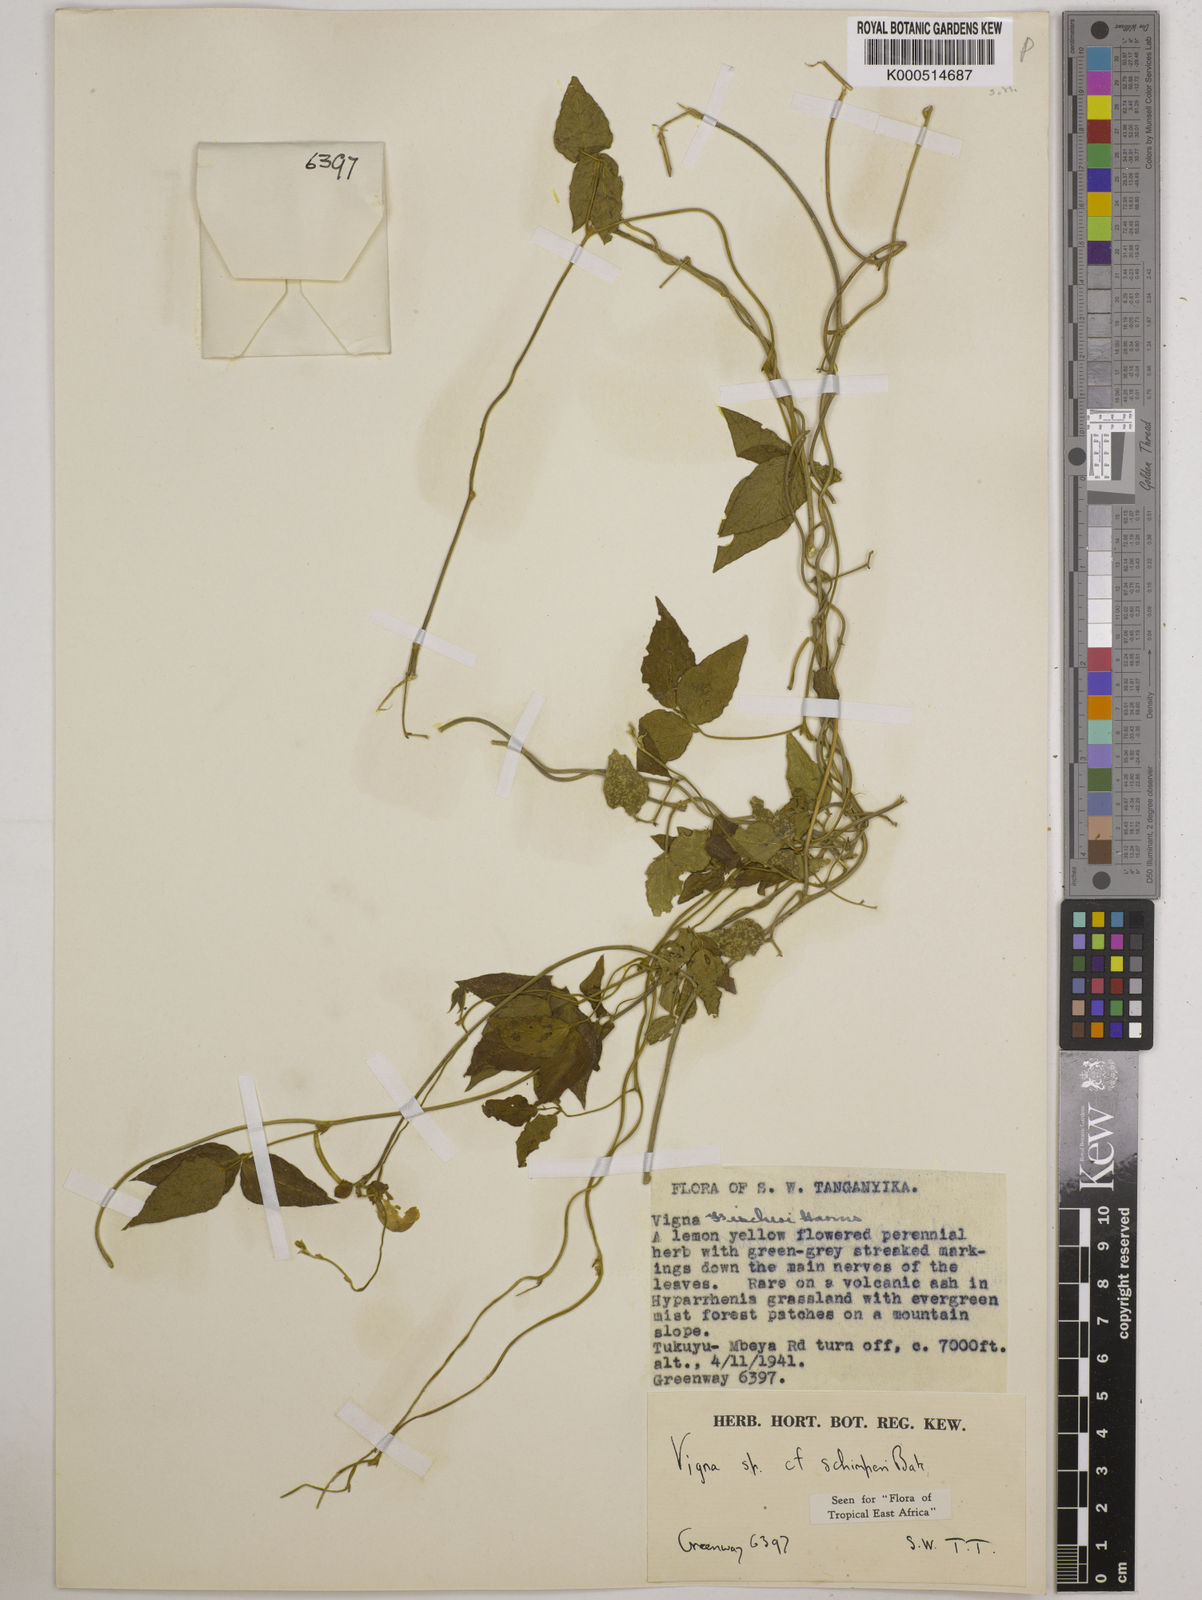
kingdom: Plantae
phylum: Tracheophyta
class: Magnoliopsida
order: Fabales
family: Fabaceae
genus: Vigna
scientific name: Vigna schimperi
